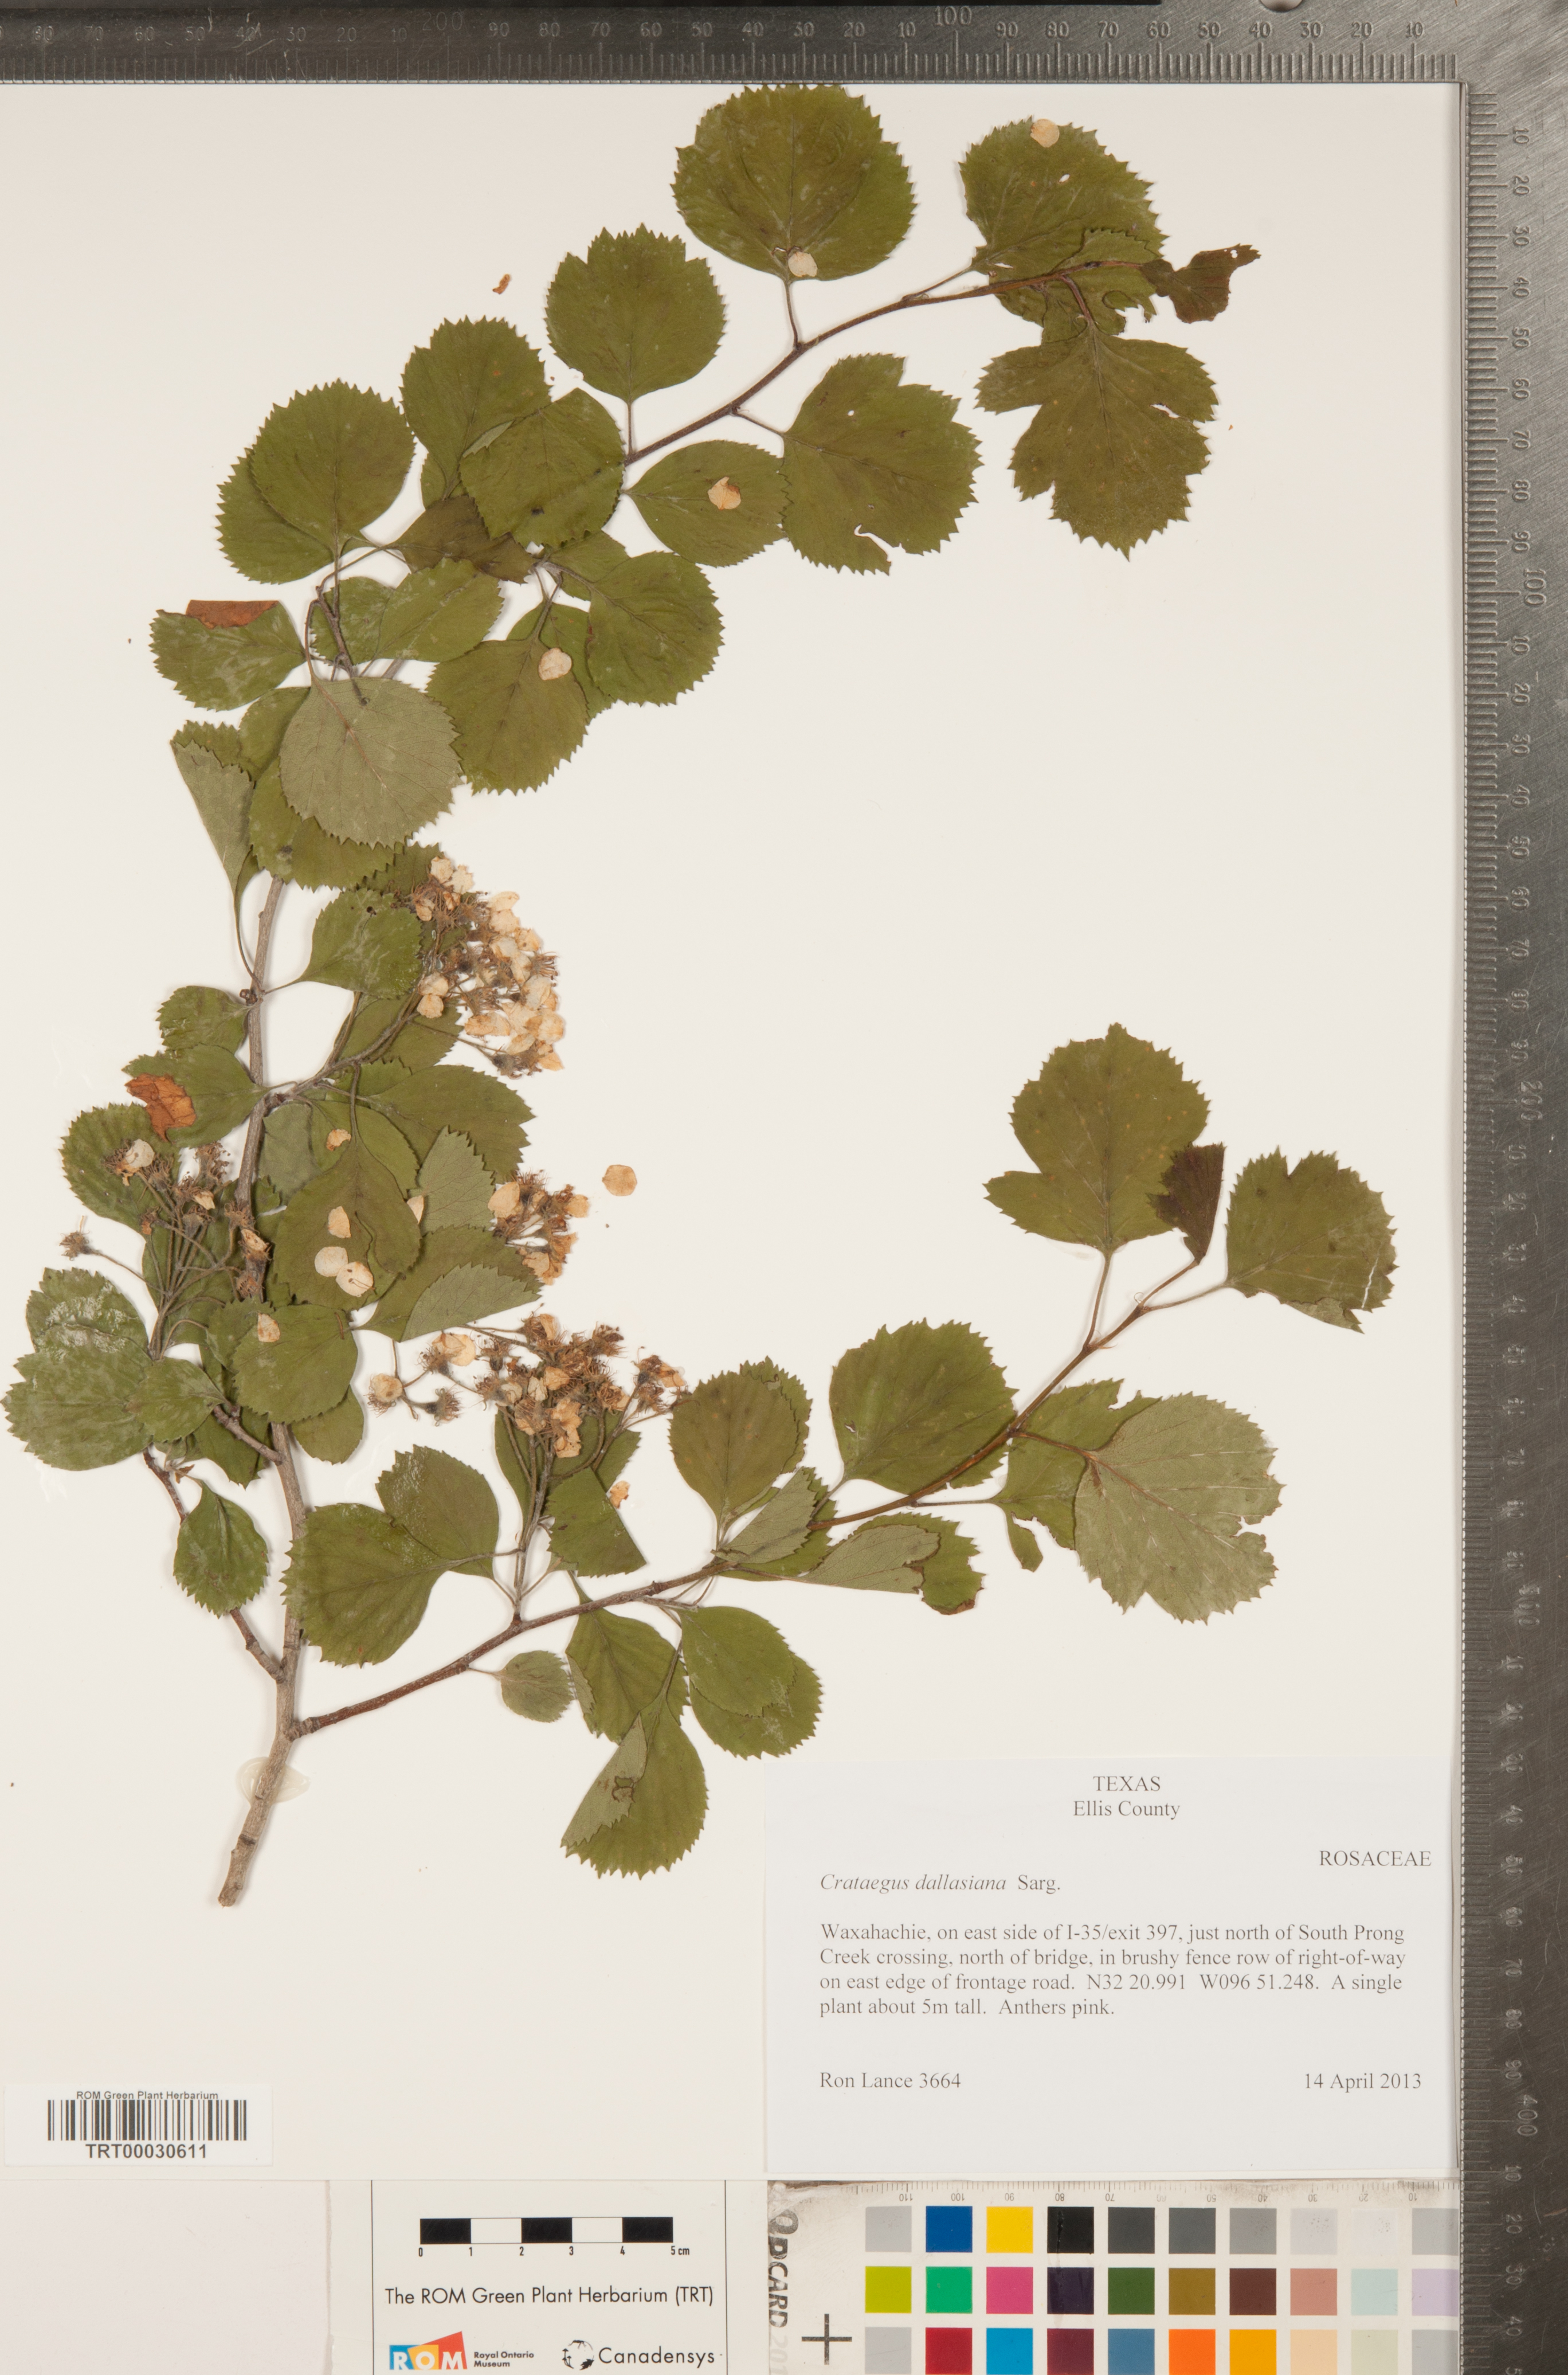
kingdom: Plantae
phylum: Tracheophyta
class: Magnoliopsida
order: Rosales
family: Rosaceae
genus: Crataegus
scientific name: Crataegus texana
